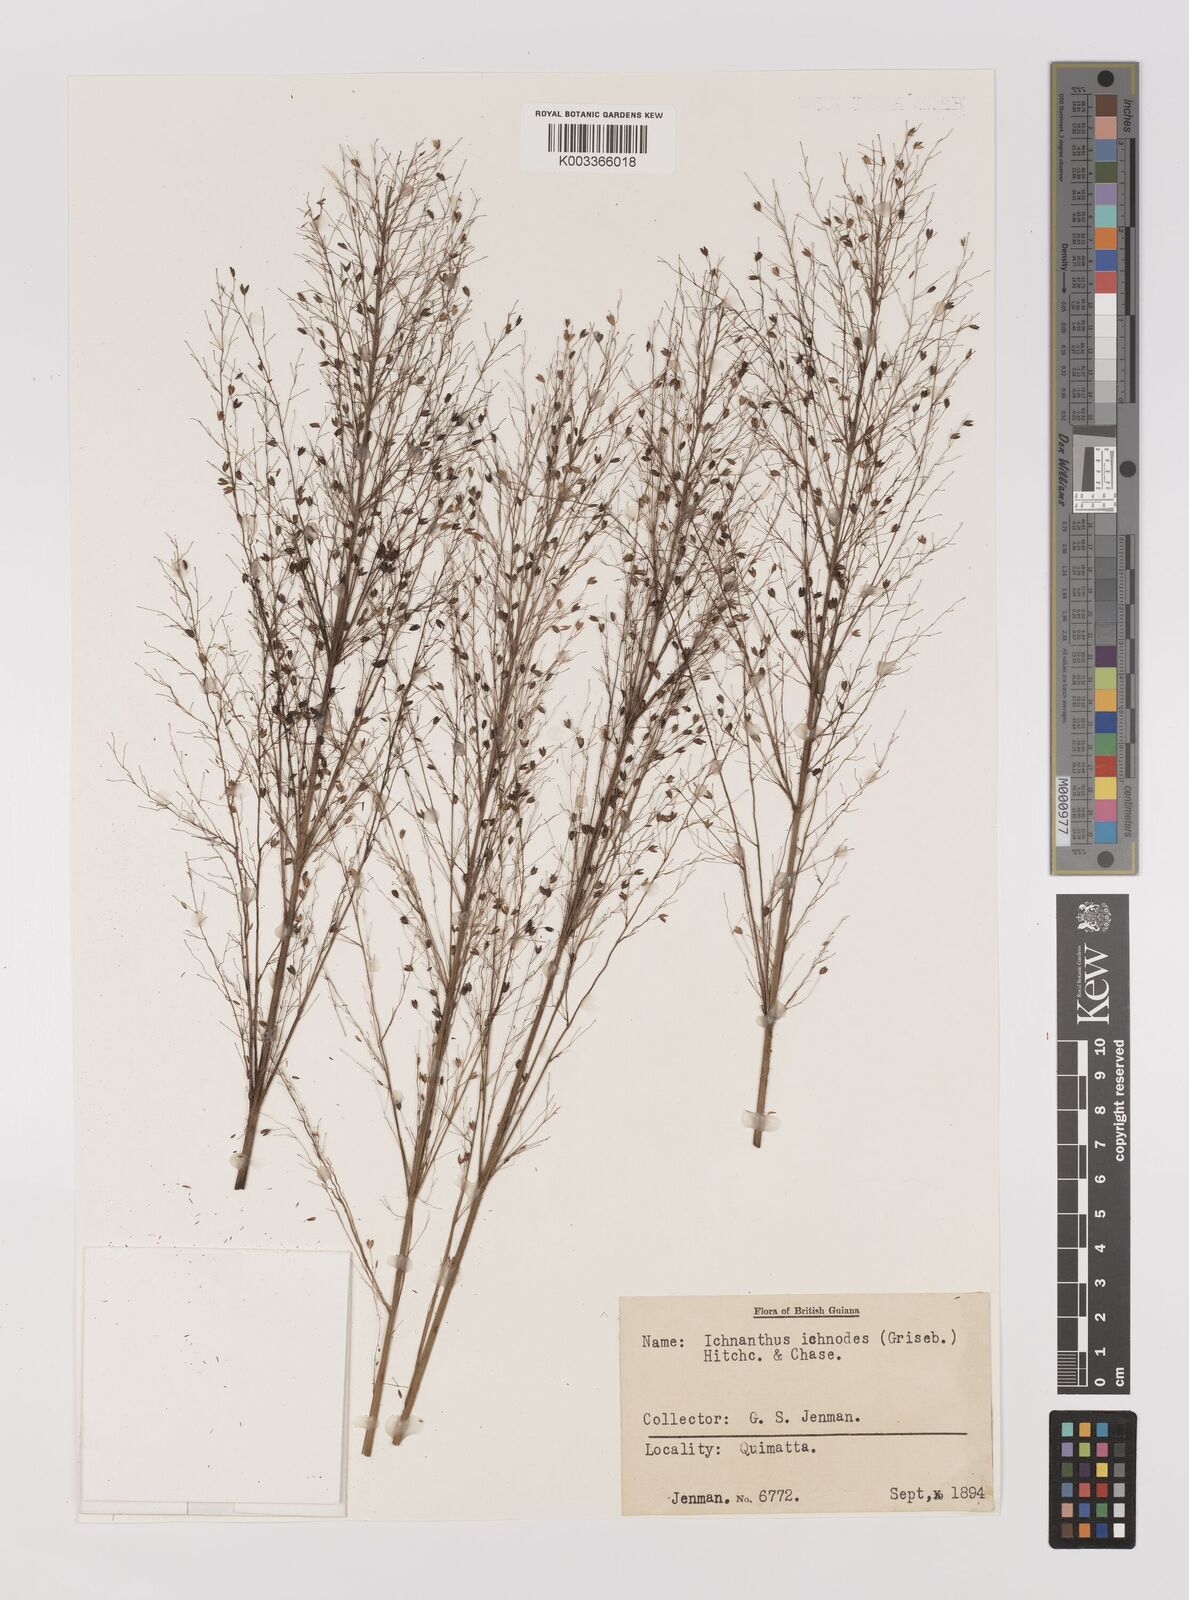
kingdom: Plantae
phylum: Tracheophyta
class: Liliopsida
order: Poales
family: Poaceae
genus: Ichnanthus
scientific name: Ichnanthus calvescens
